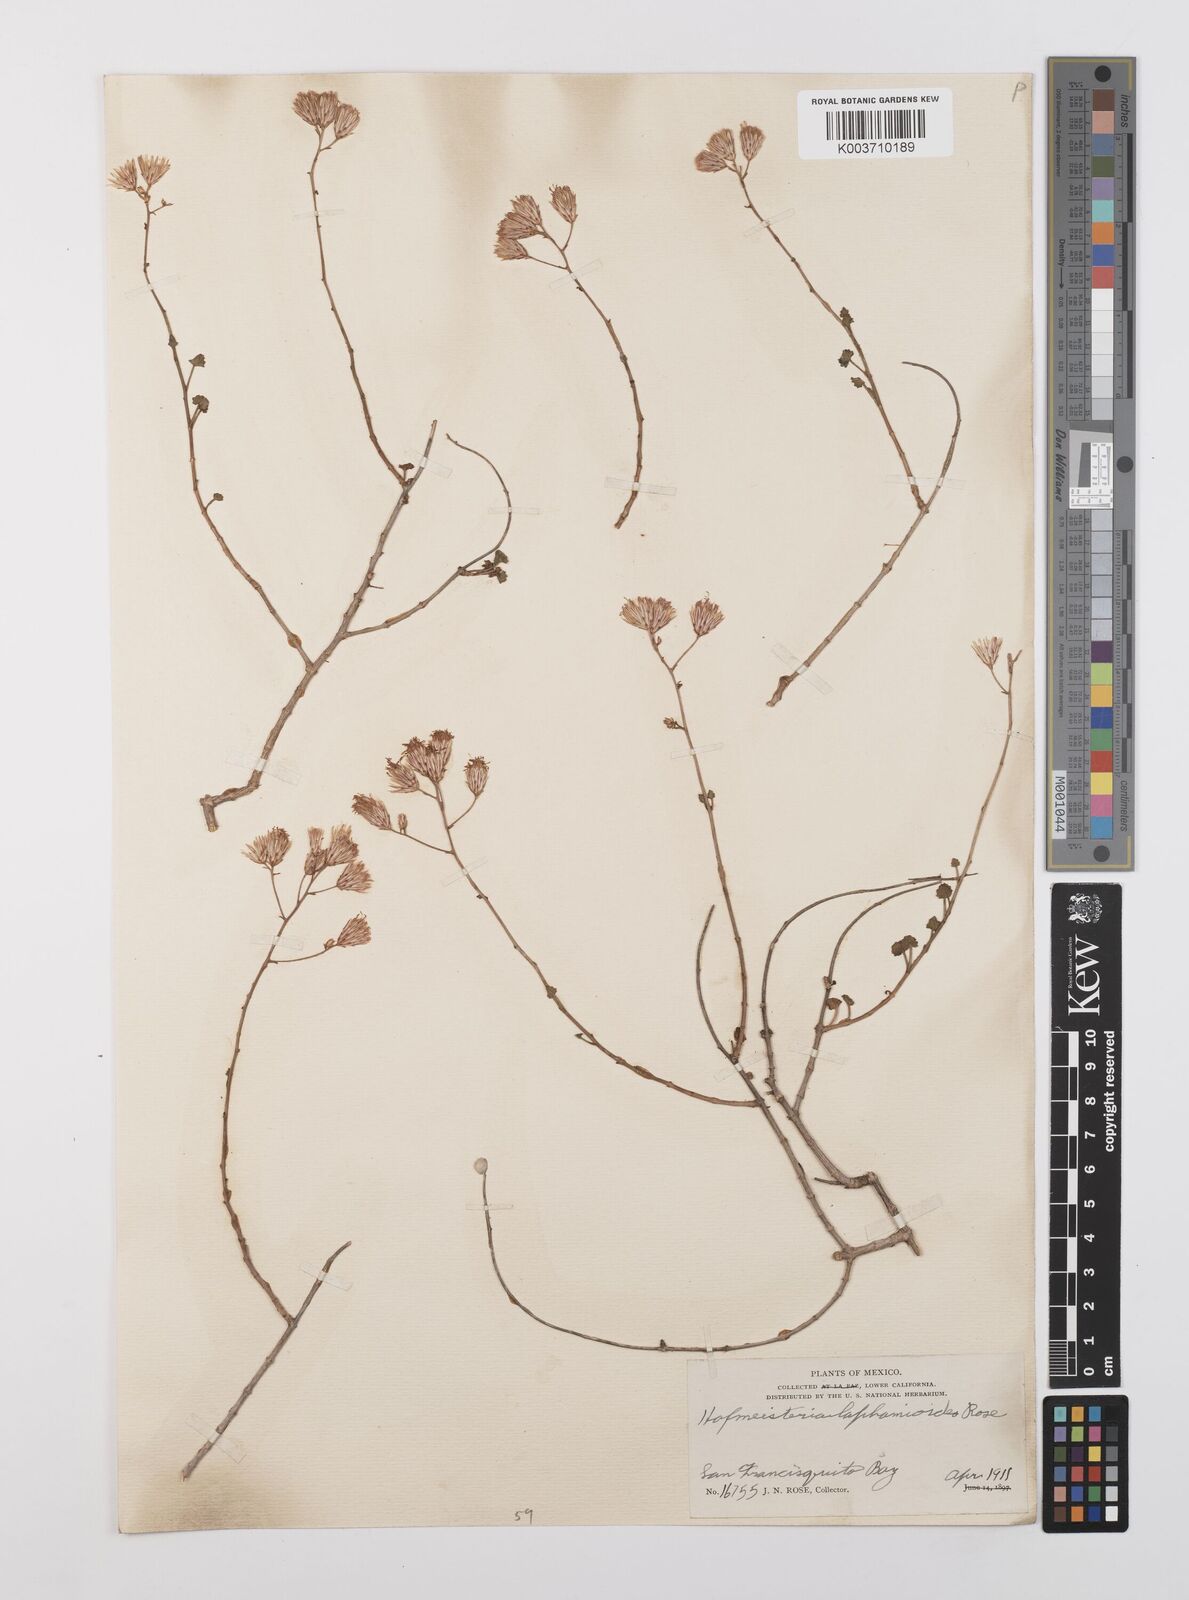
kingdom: Plantae
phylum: Tracheophyta
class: Magnoliopsida
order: Asterales
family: Asteraceae
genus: Pleurocoronis
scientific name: Pleurocoronis laphamioides
